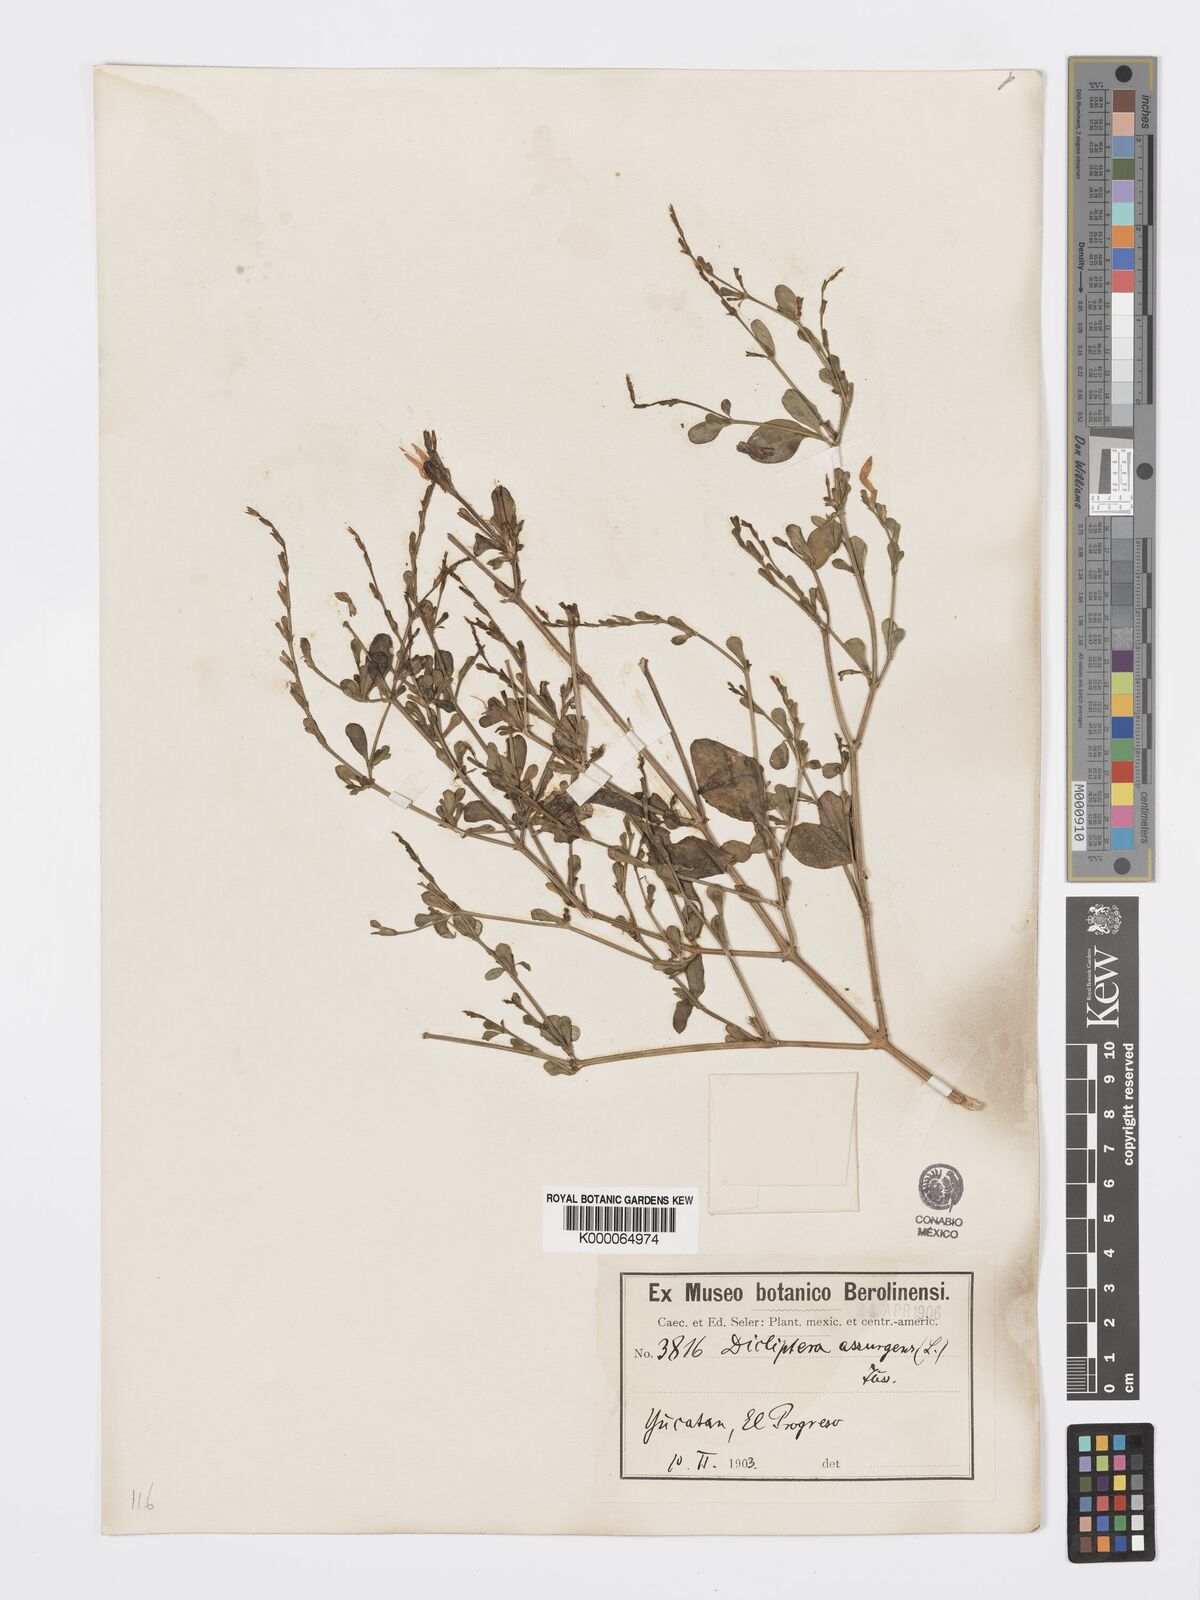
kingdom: Plantae
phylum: Tracheophyta
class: Magnoliopsida
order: Lamiales
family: Acanthaceae
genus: Dicliptera
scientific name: Dicliptera sexangularis
